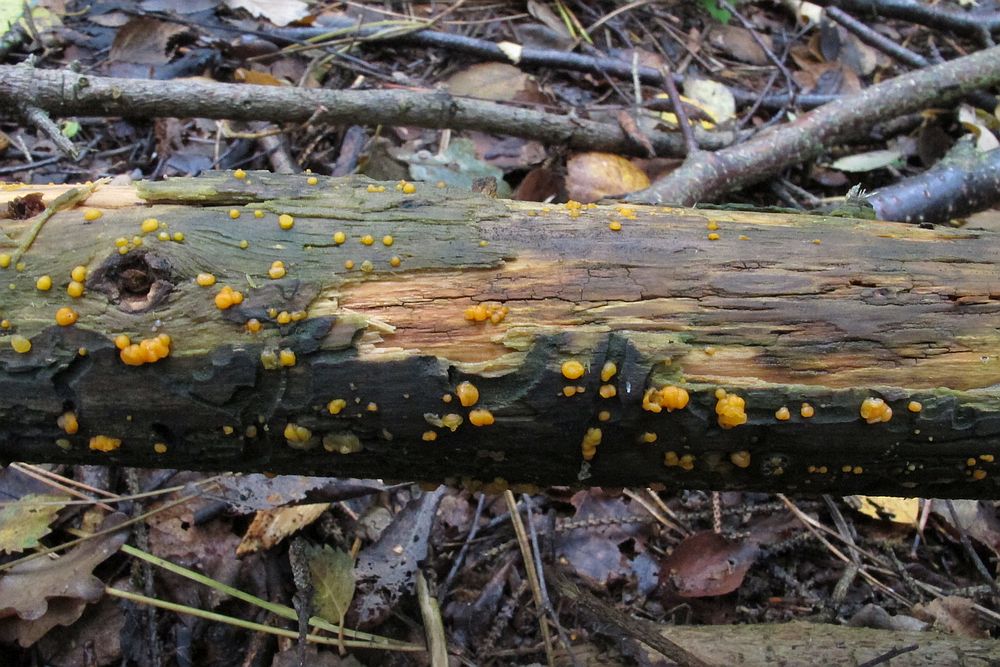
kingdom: Fungi
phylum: Basidiomycota
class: Dacrymycetes
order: Dacrymycetales
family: Dacrymycetaceae
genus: Dacrymyces
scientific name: Dacrymyces stillatus
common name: almindelig tåresvamp
